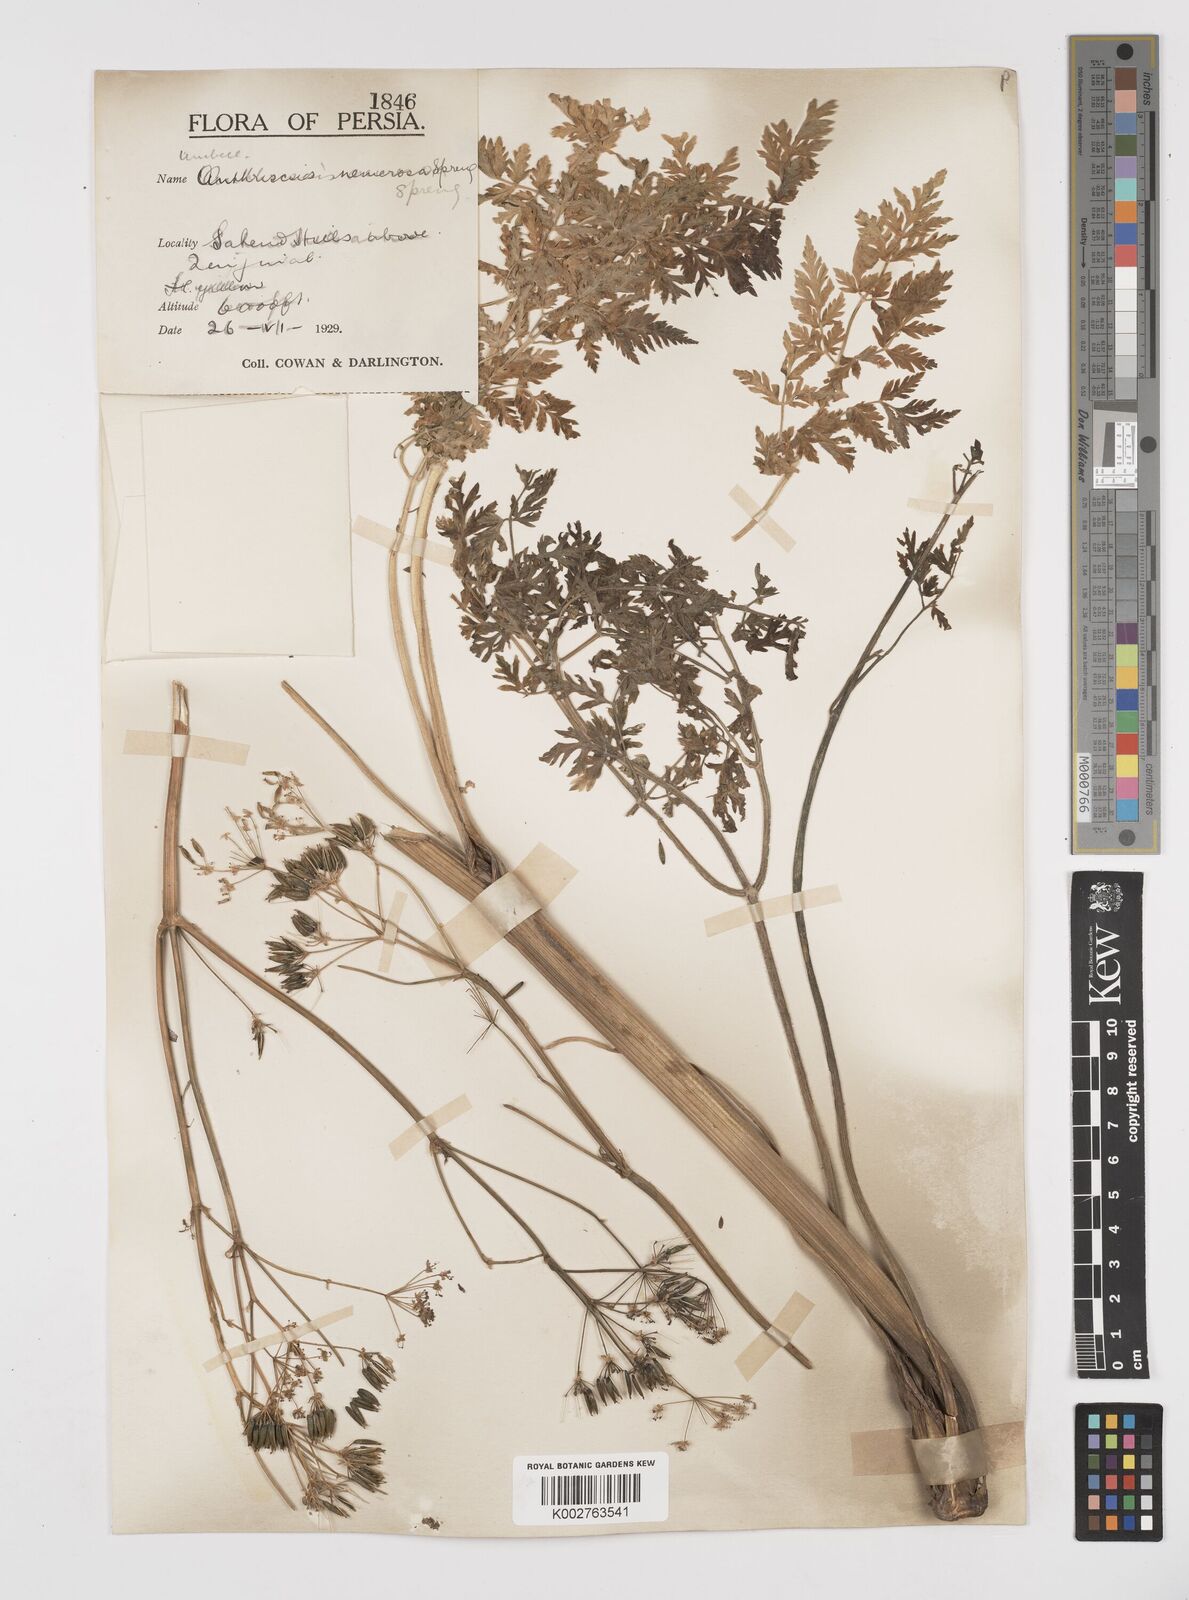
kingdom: Plantae
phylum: Tracheophyta
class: Magnoliopsida
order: Apiales
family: Apiaceae
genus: Anthriscus
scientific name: Anthriscus sylvestris
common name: Cow parsley
